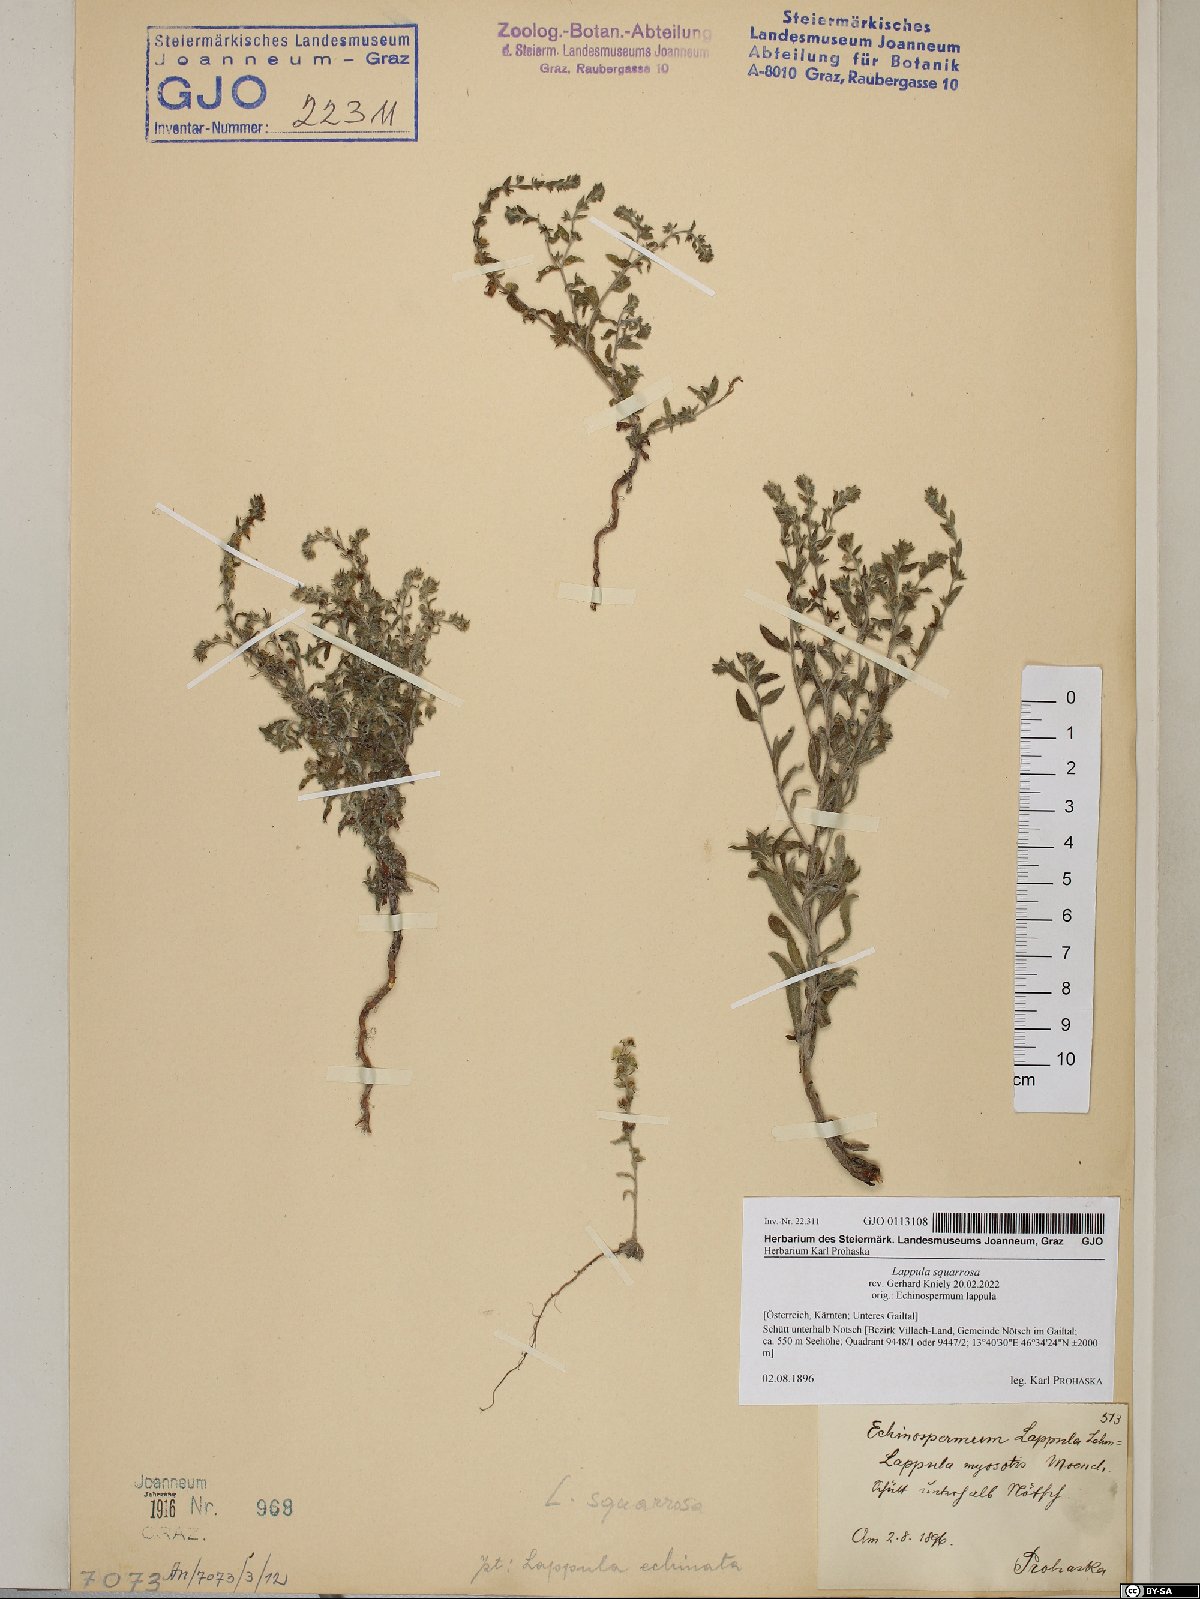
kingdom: Plantae
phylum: Tracheophyta
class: Magnoliopsida
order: Boraginales
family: Boraginaceae
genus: Lappula
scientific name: Lappula squarrosa
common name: European stickseed
